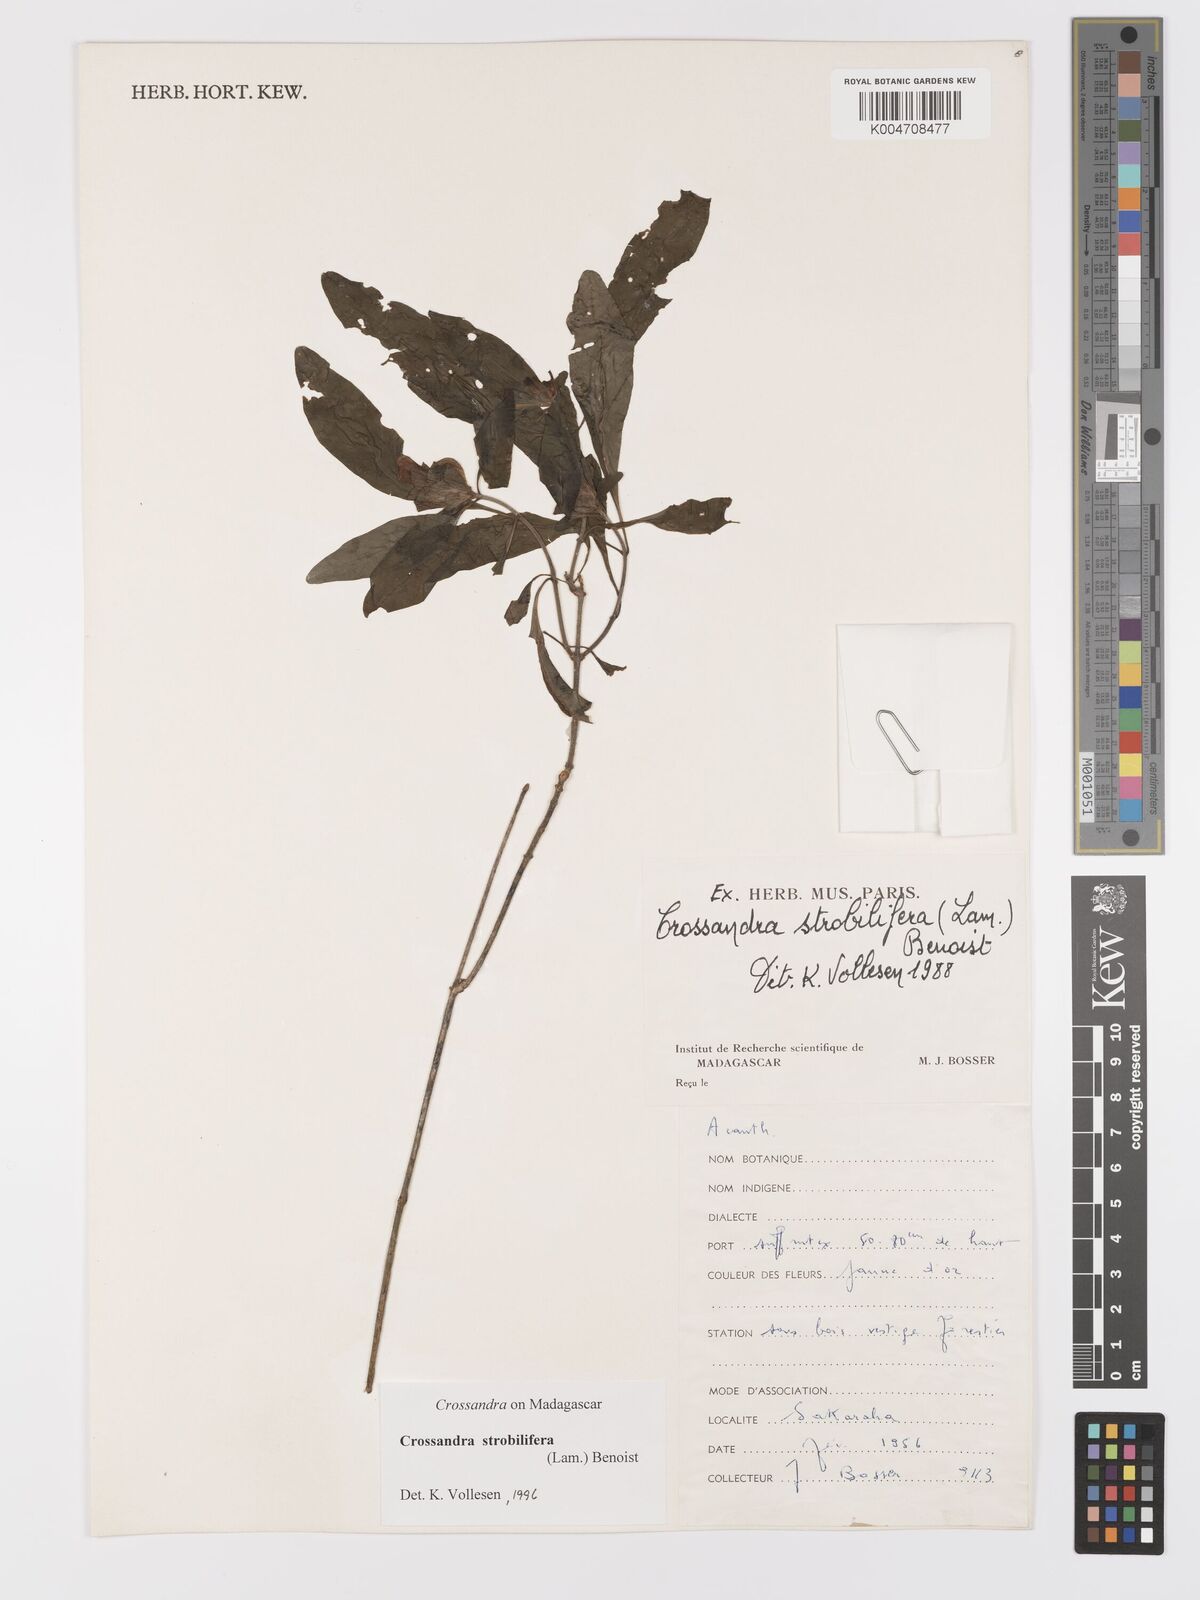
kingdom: Plantae
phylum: Tracheophyta
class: Magnoliopsida
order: Lamiales
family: Acanthaceae
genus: Crossandra
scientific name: Crossandra strobilifera
